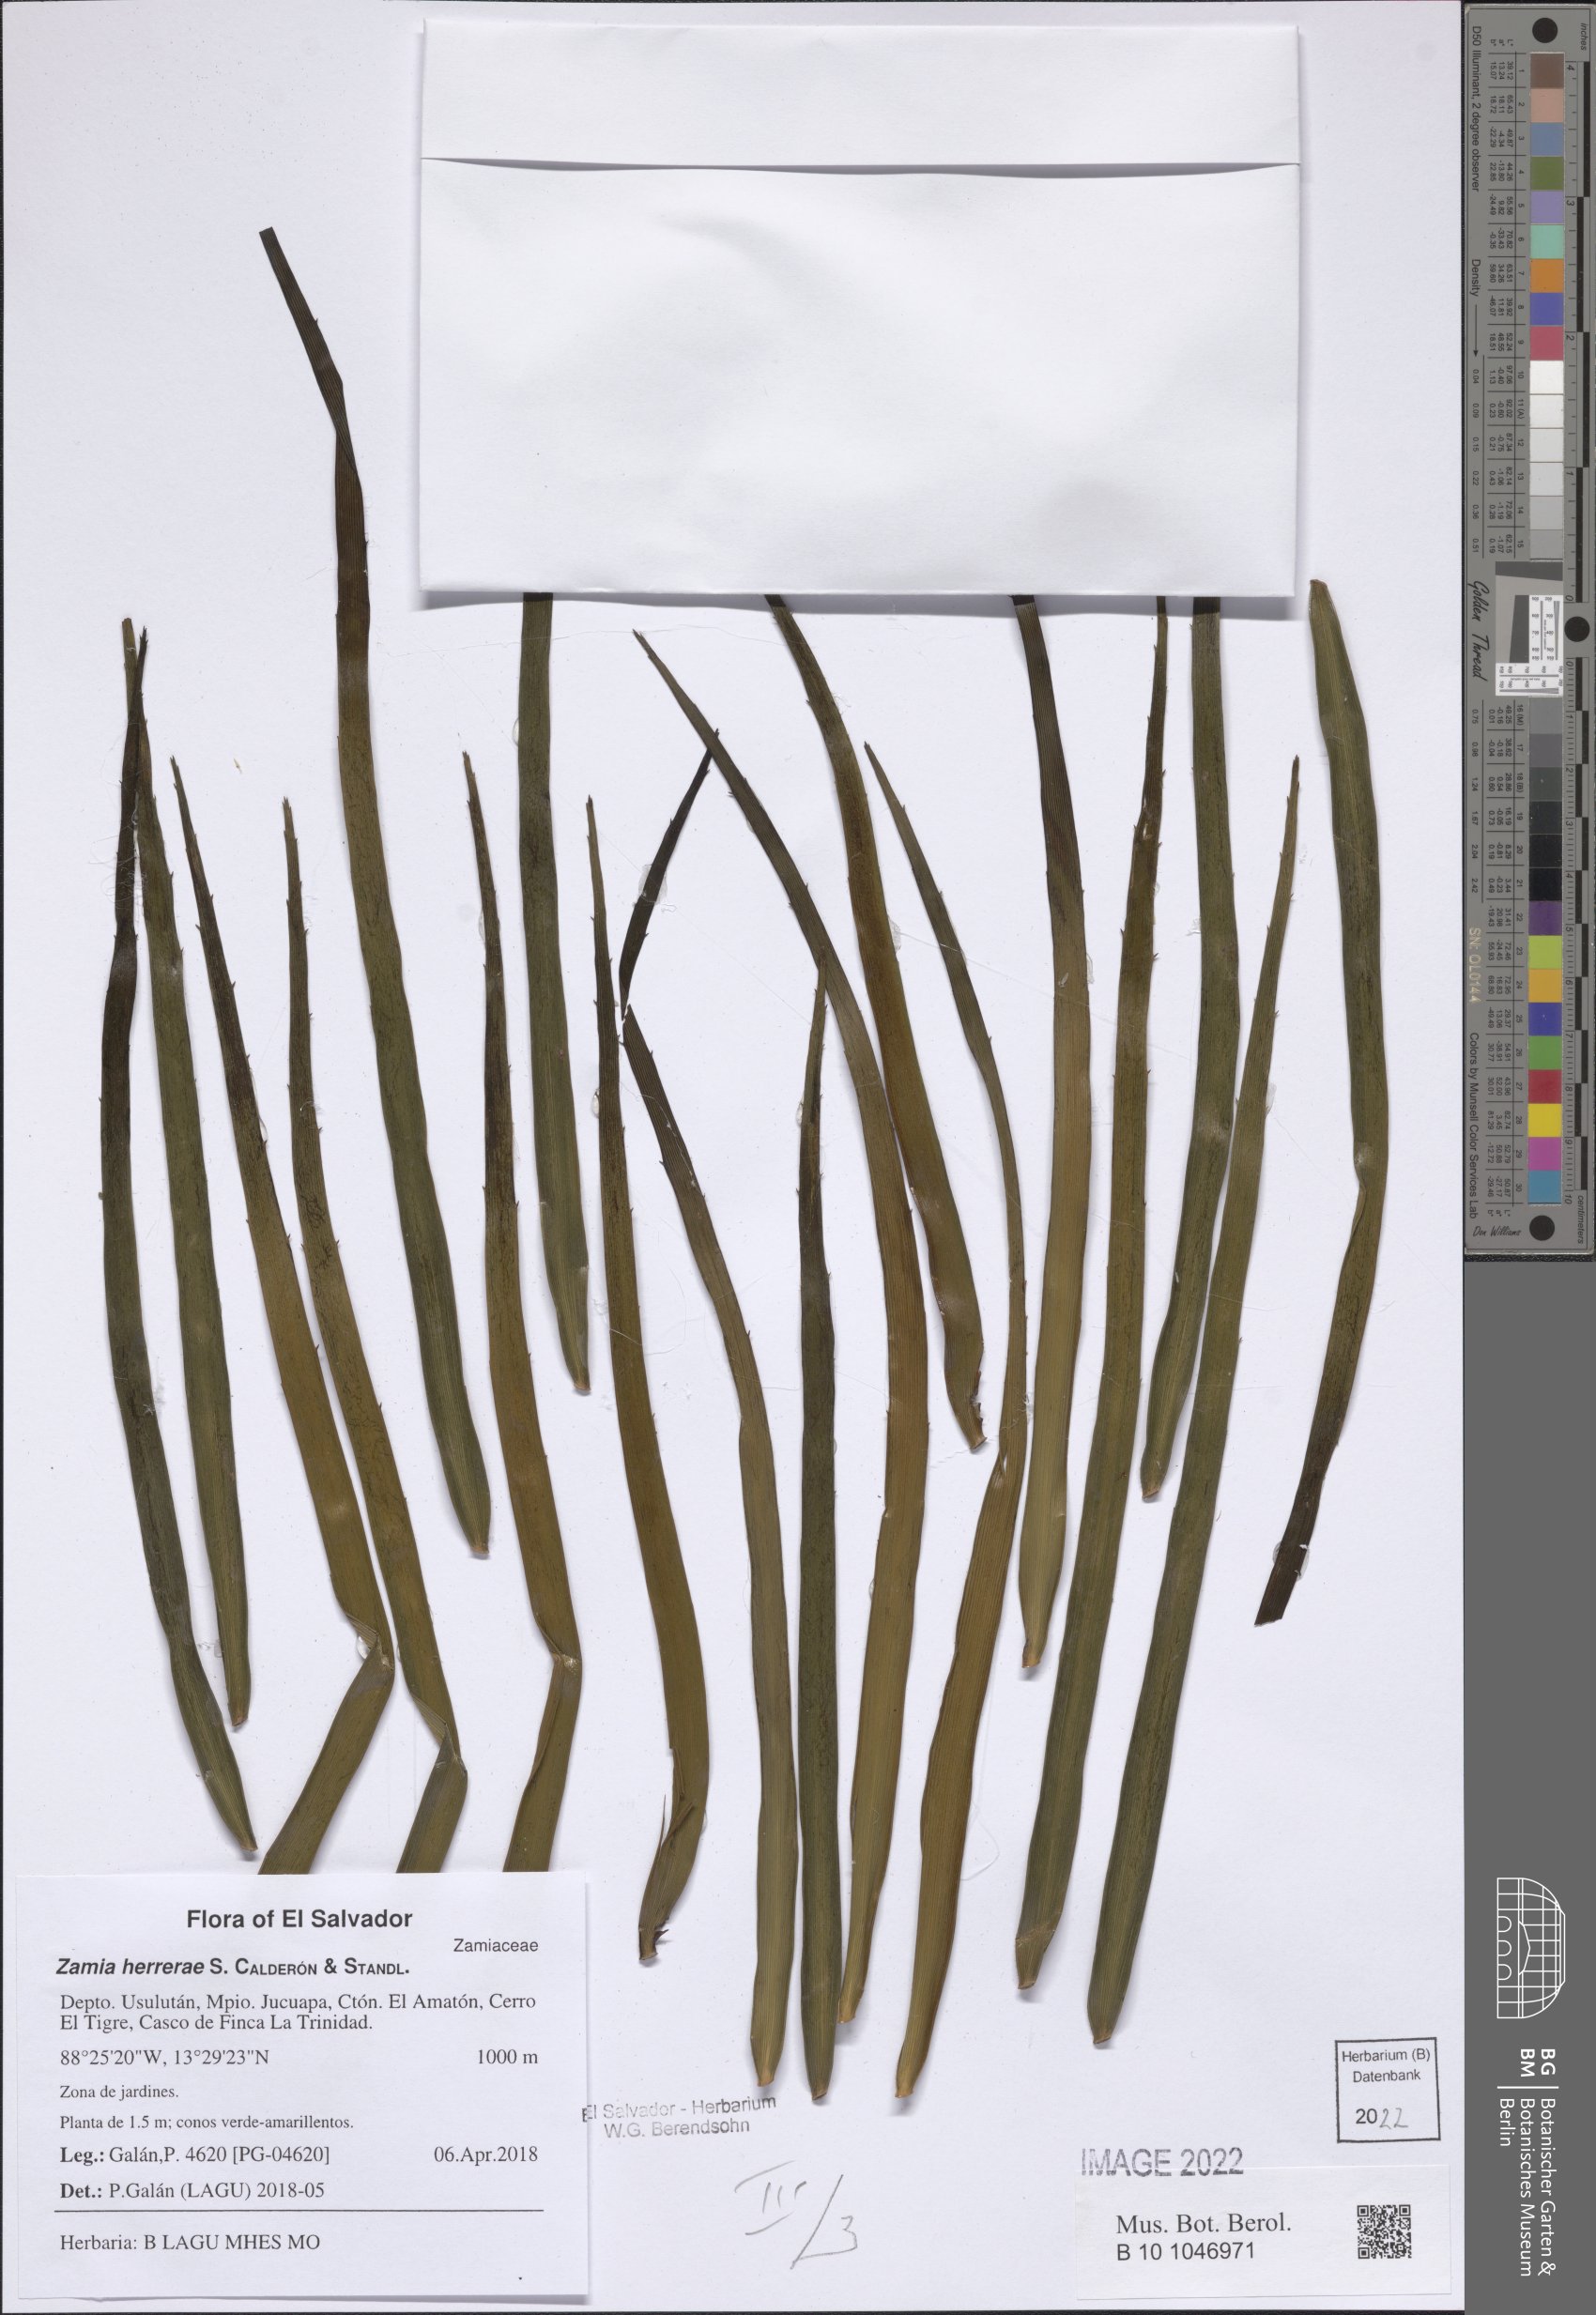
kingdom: Plantae
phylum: Tracheophyta
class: Cycadopsida
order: Cycadales
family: Zamiaceae
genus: Zamia
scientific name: Zamia herrerae
